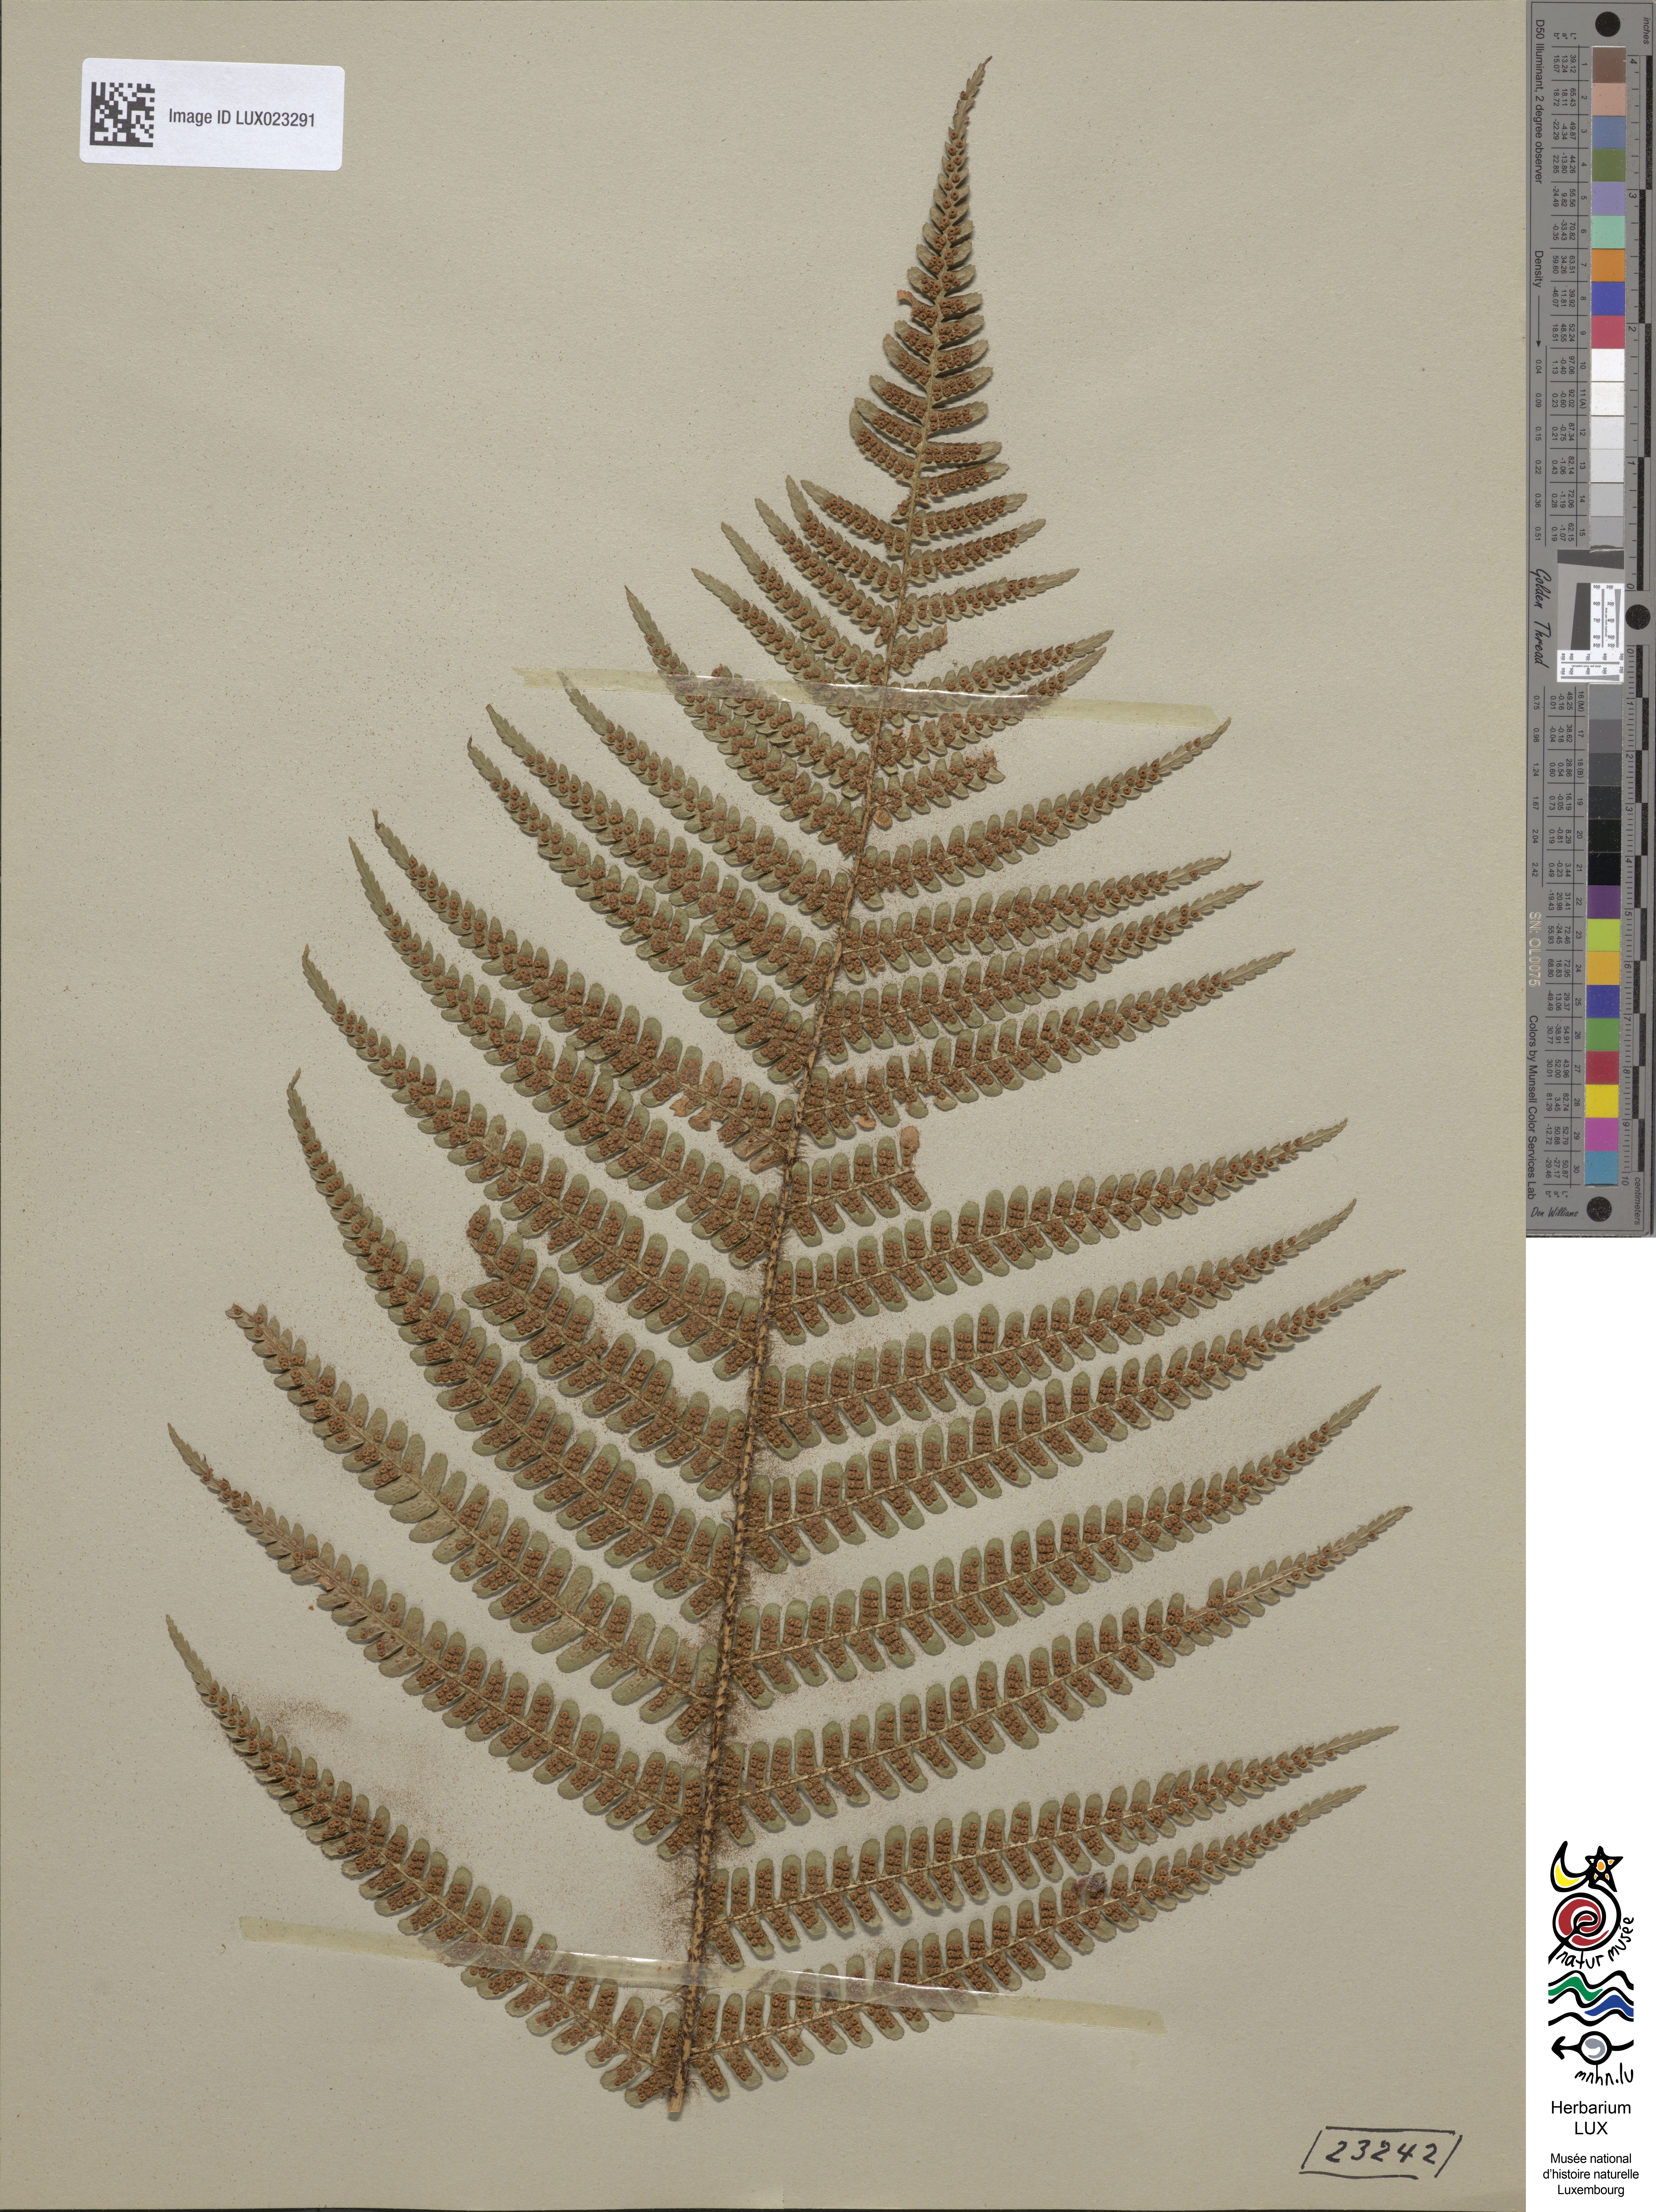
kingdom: Plantae
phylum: Tracheophyta
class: Polypodiopsida
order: Polypodiales
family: Dryopteridaceae
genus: Dryopteris
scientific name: Dryopteris borreri
